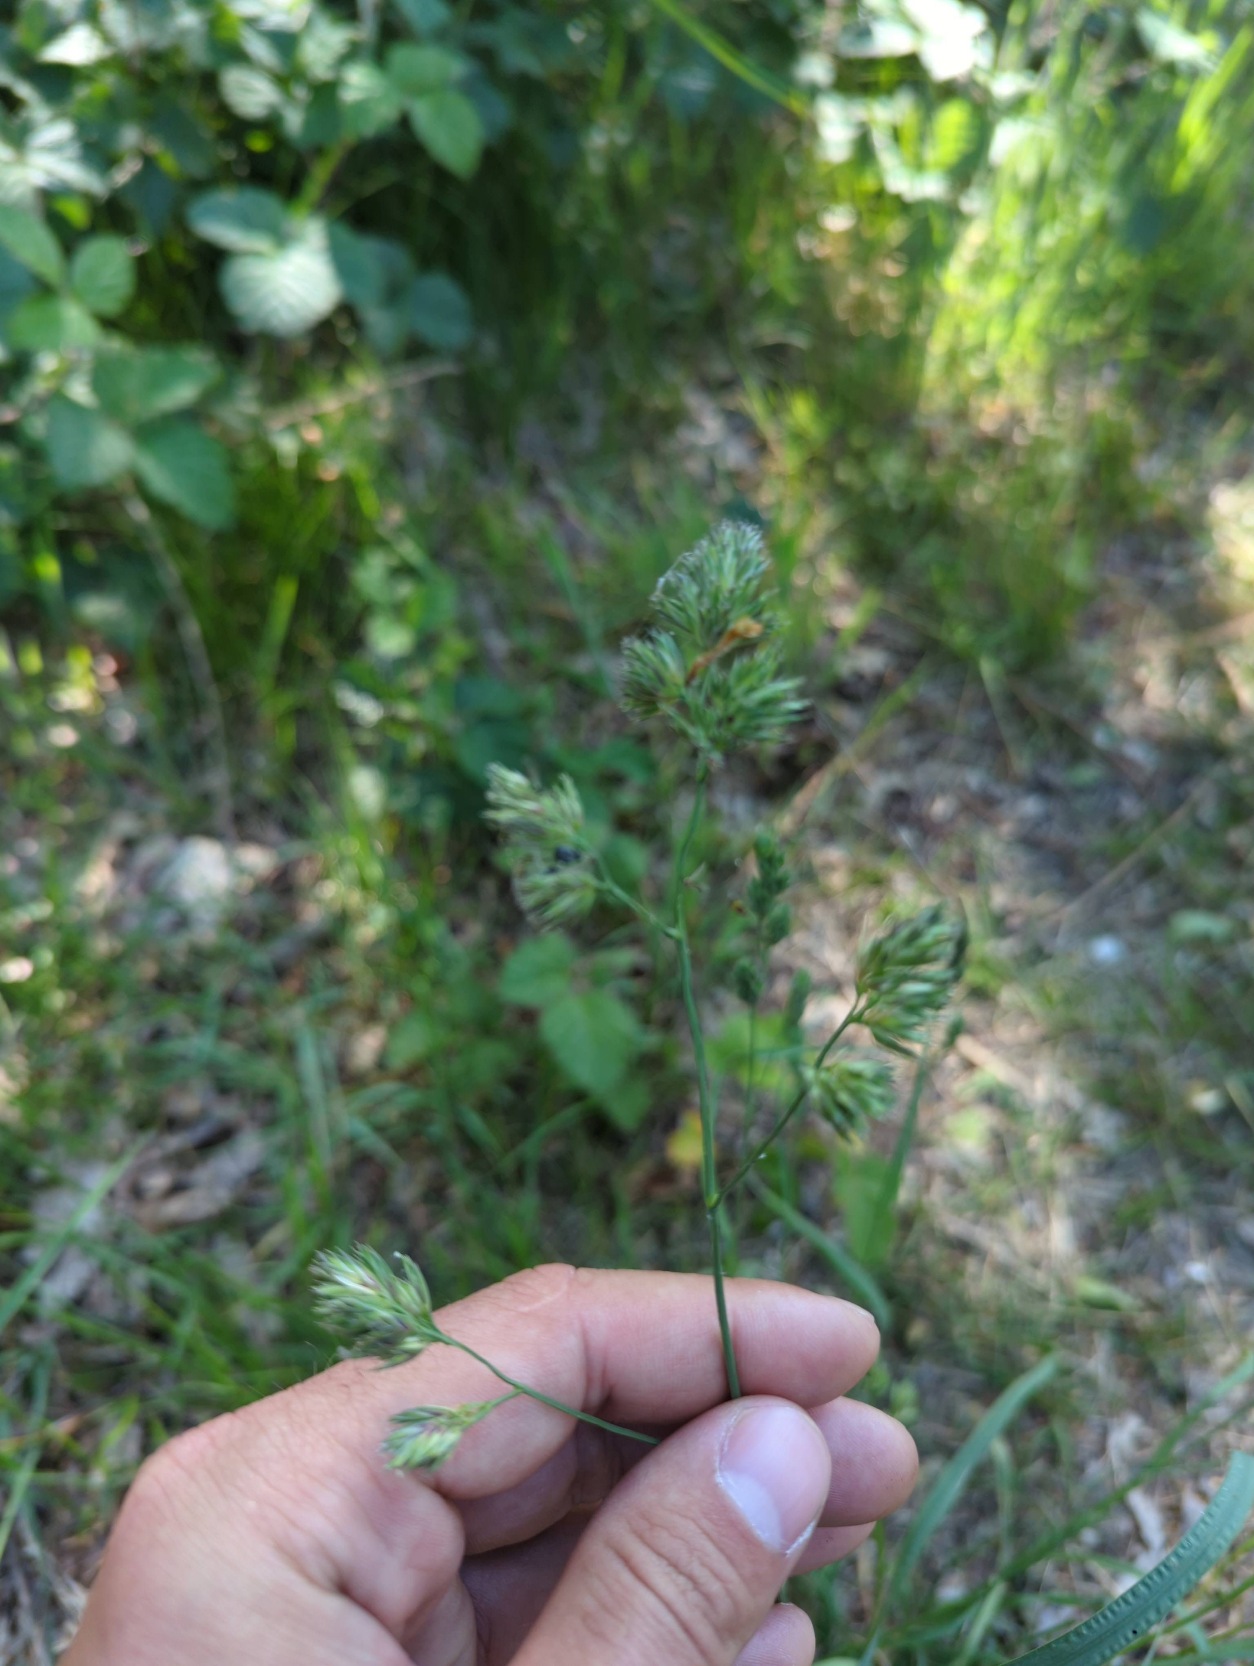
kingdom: Plantae
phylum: Tracheophyta
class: Liliopsida
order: Poales
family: Poaceae
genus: Dactylis
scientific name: Dactylis glomerata
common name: Almindelig hundegræs
